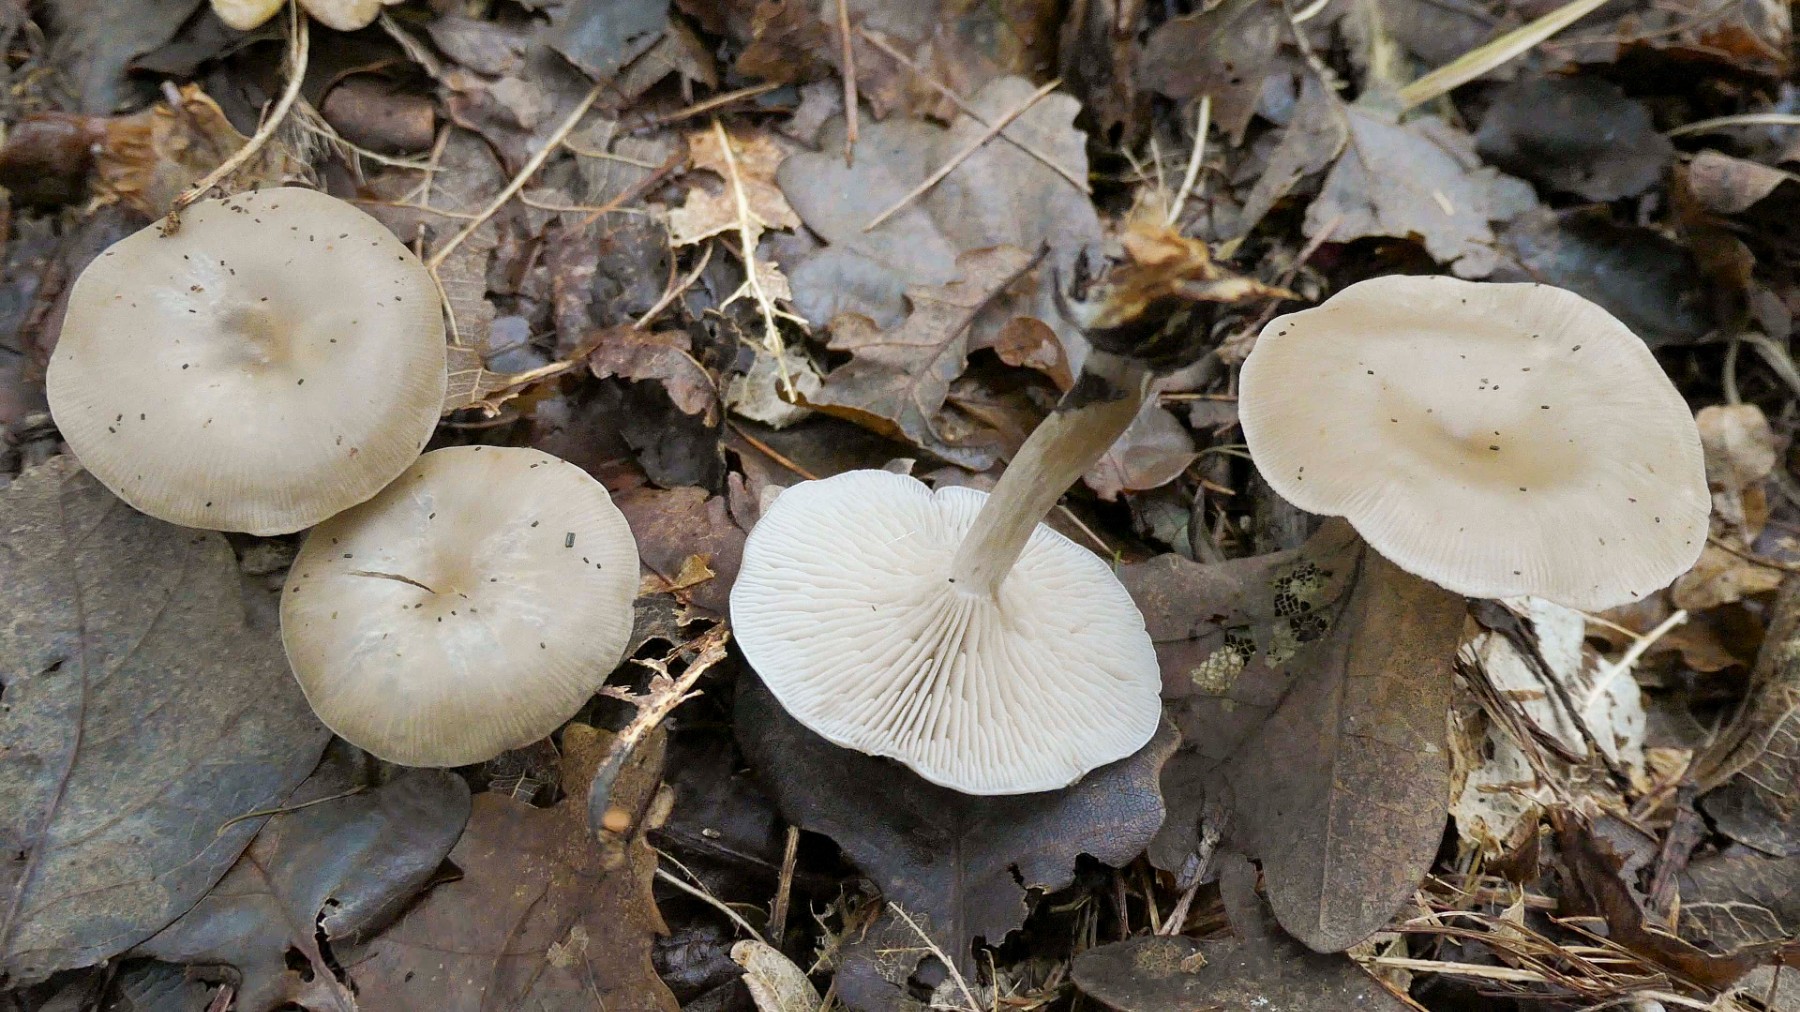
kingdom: Fungi
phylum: Basidiomycota
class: Agaricomycetes
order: Agaricales
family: Tricholomataceae
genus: Clitocybe
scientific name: Clitocybe vibecina
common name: randstribet tragthat
